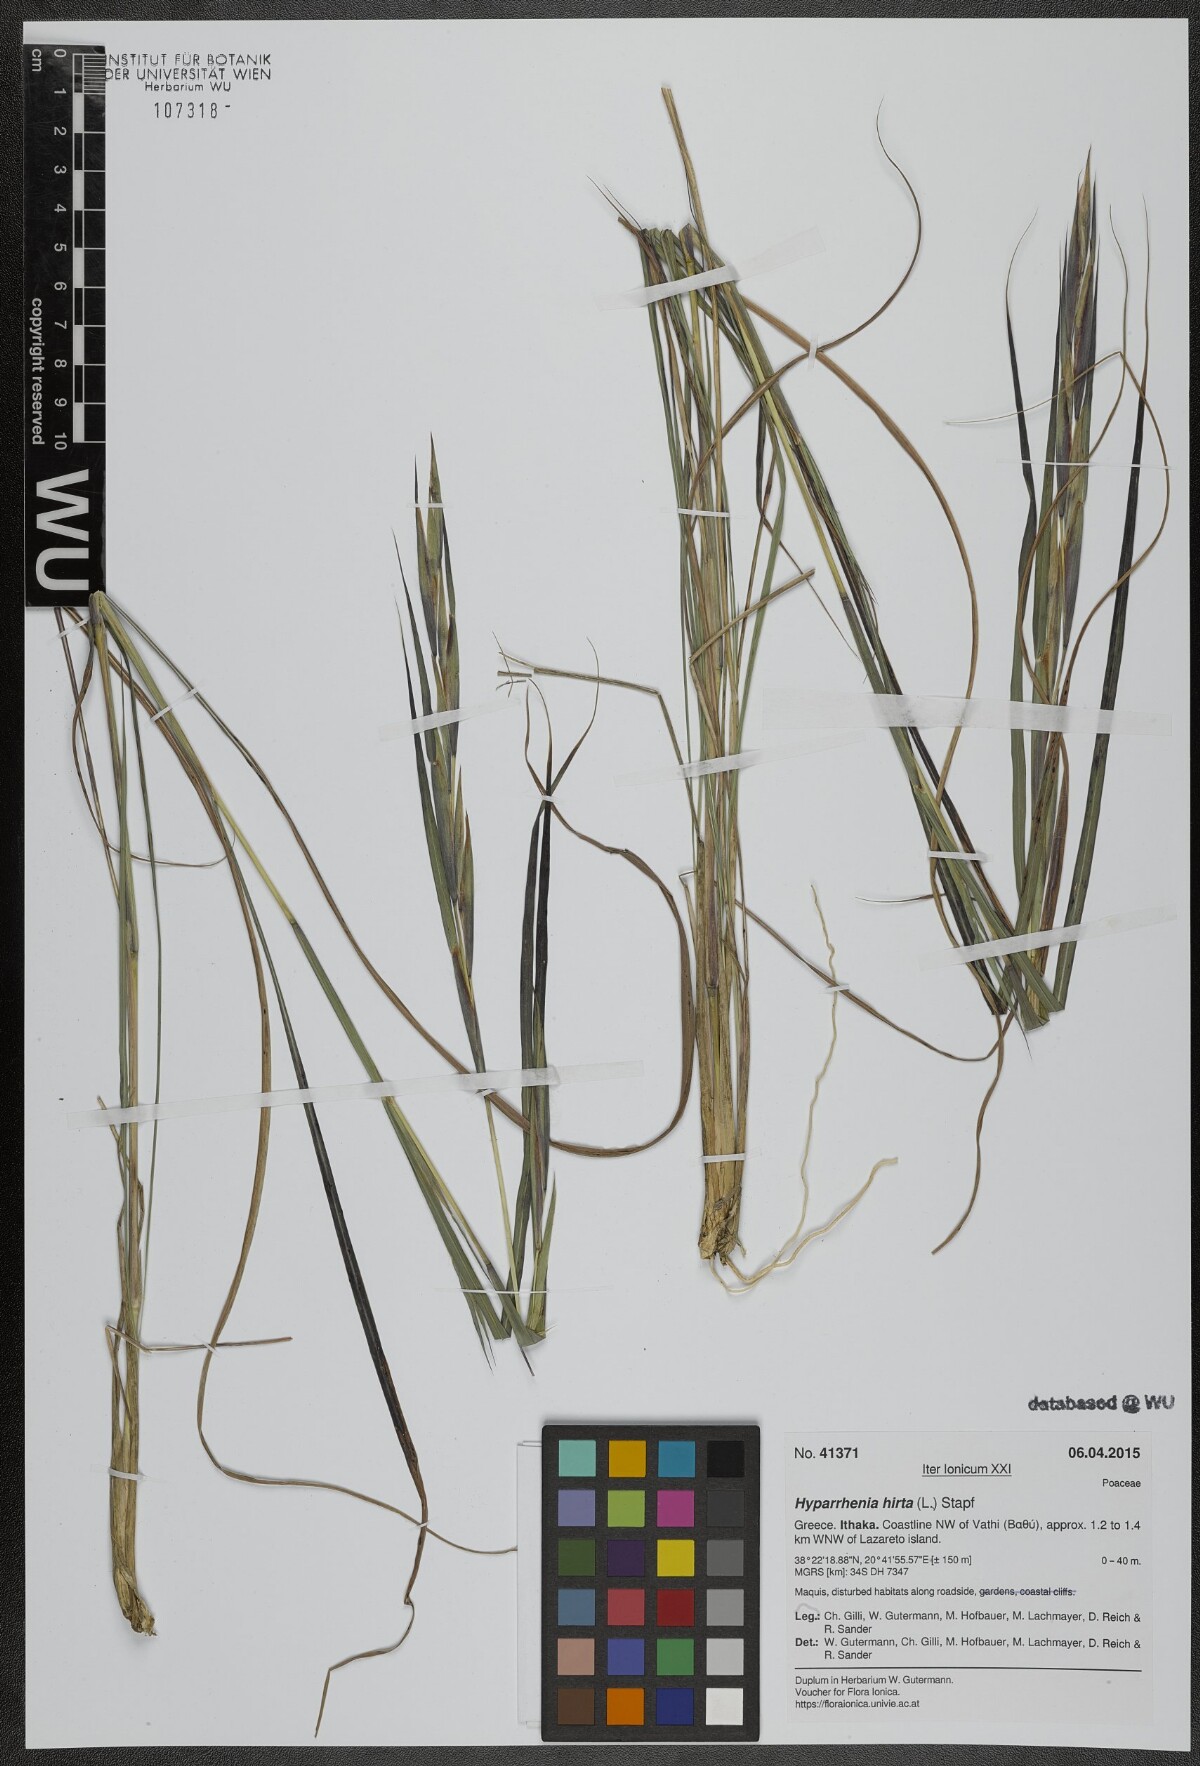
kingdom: Plantae
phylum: Tracheophyta
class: Liliopsida
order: Poales
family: Poaceae
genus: Hyparrhenia
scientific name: Hyparrhenia hirta
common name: Thatching grass
